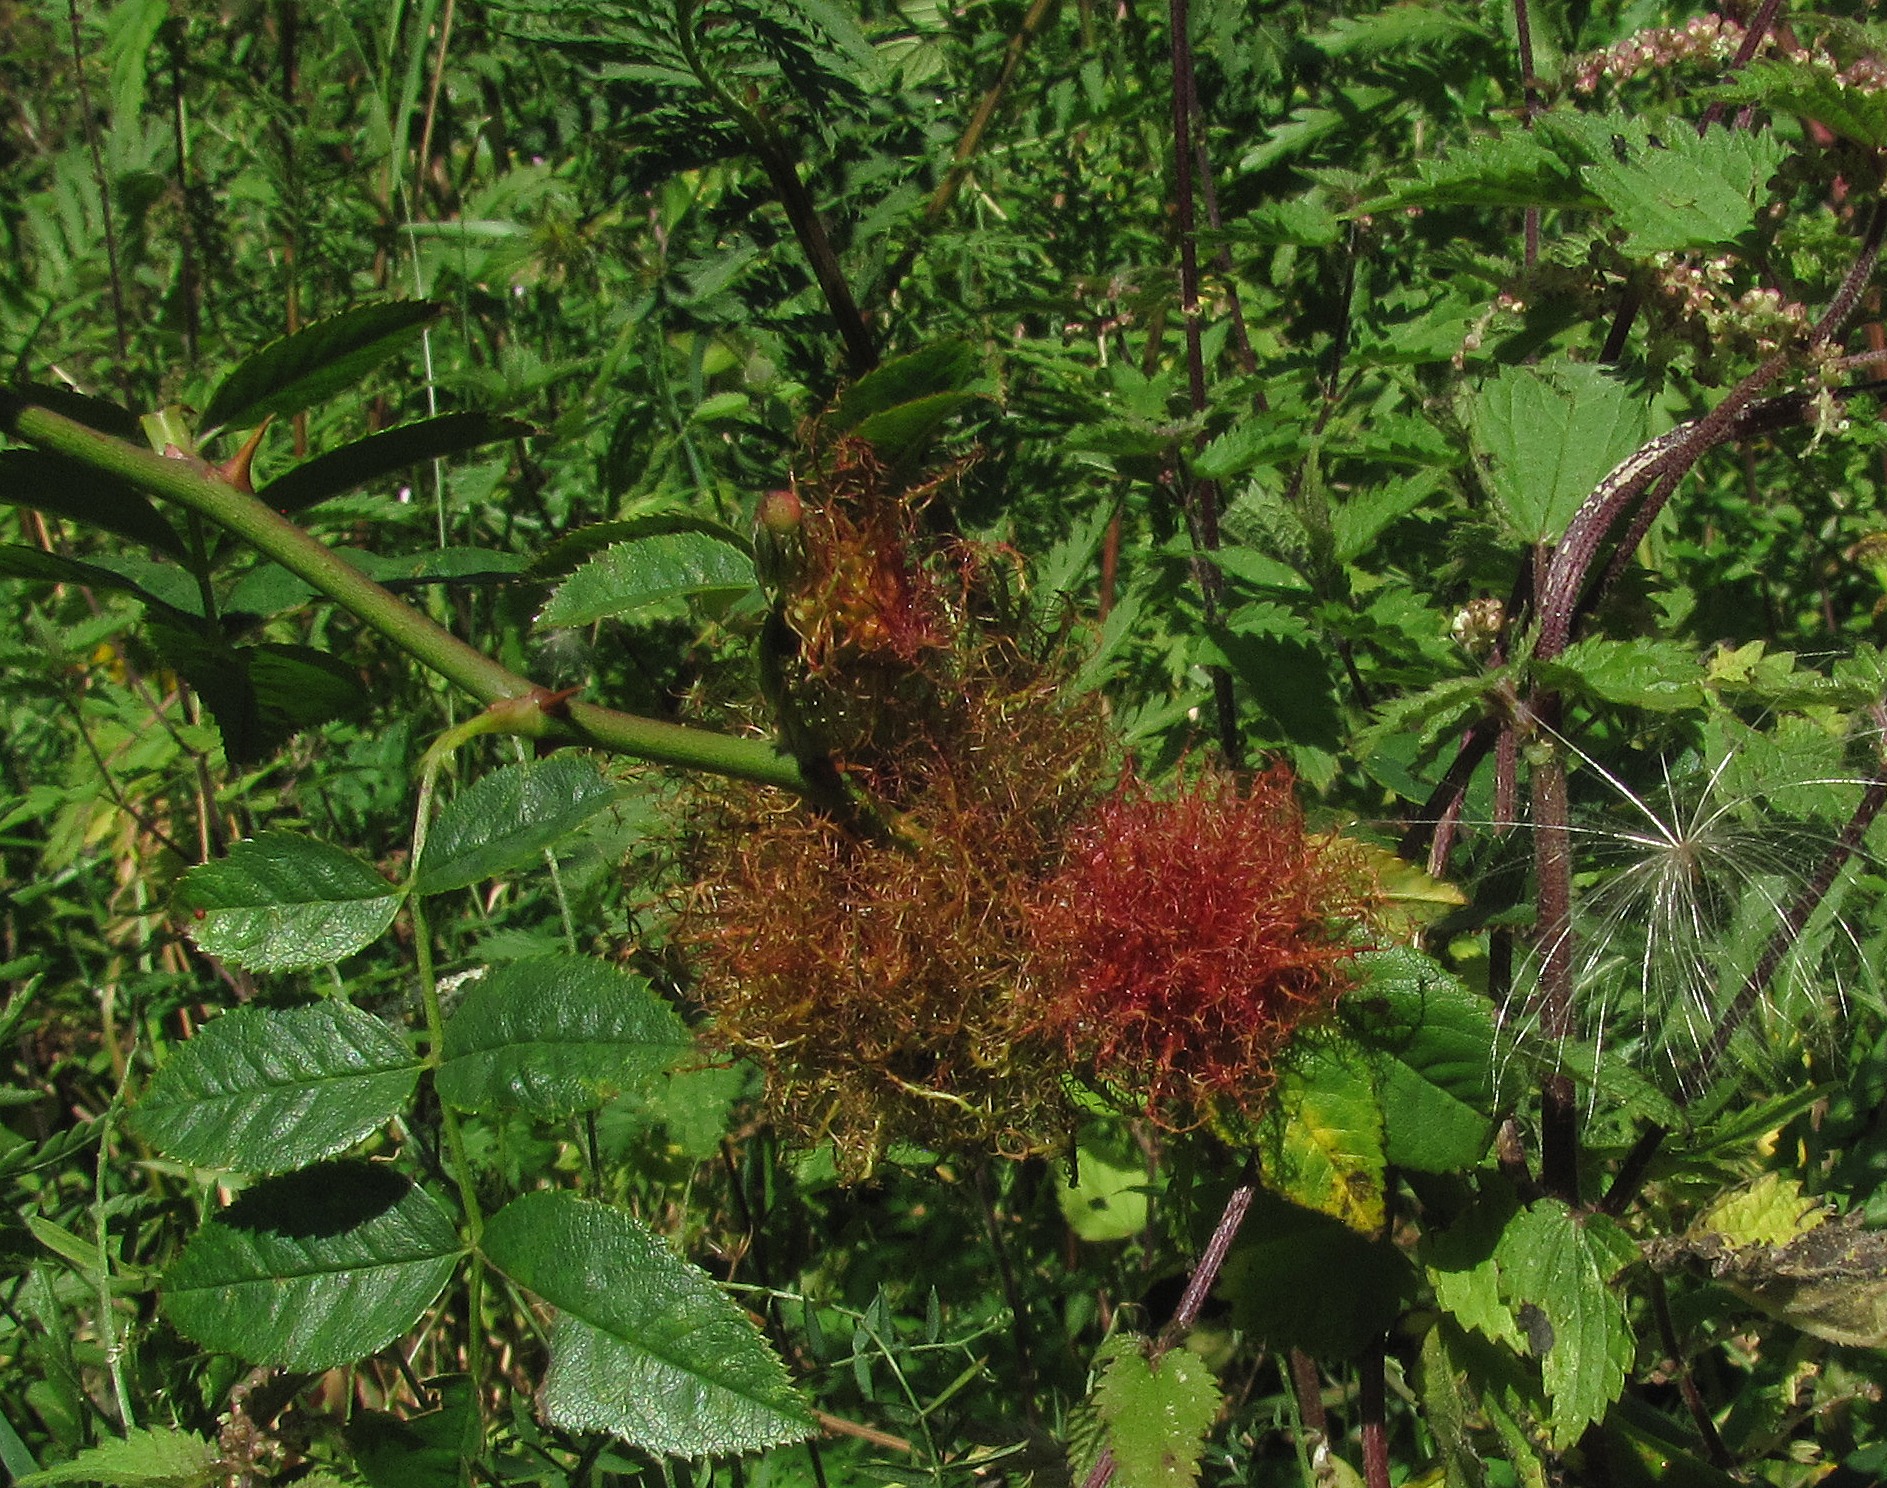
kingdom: Animalia
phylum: Arthropoda
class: Insecta
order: Hymenoptera
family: Cynipidae
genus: Diplolepis
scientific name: Diplolepis rosae
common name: Bedeguargalhveps
